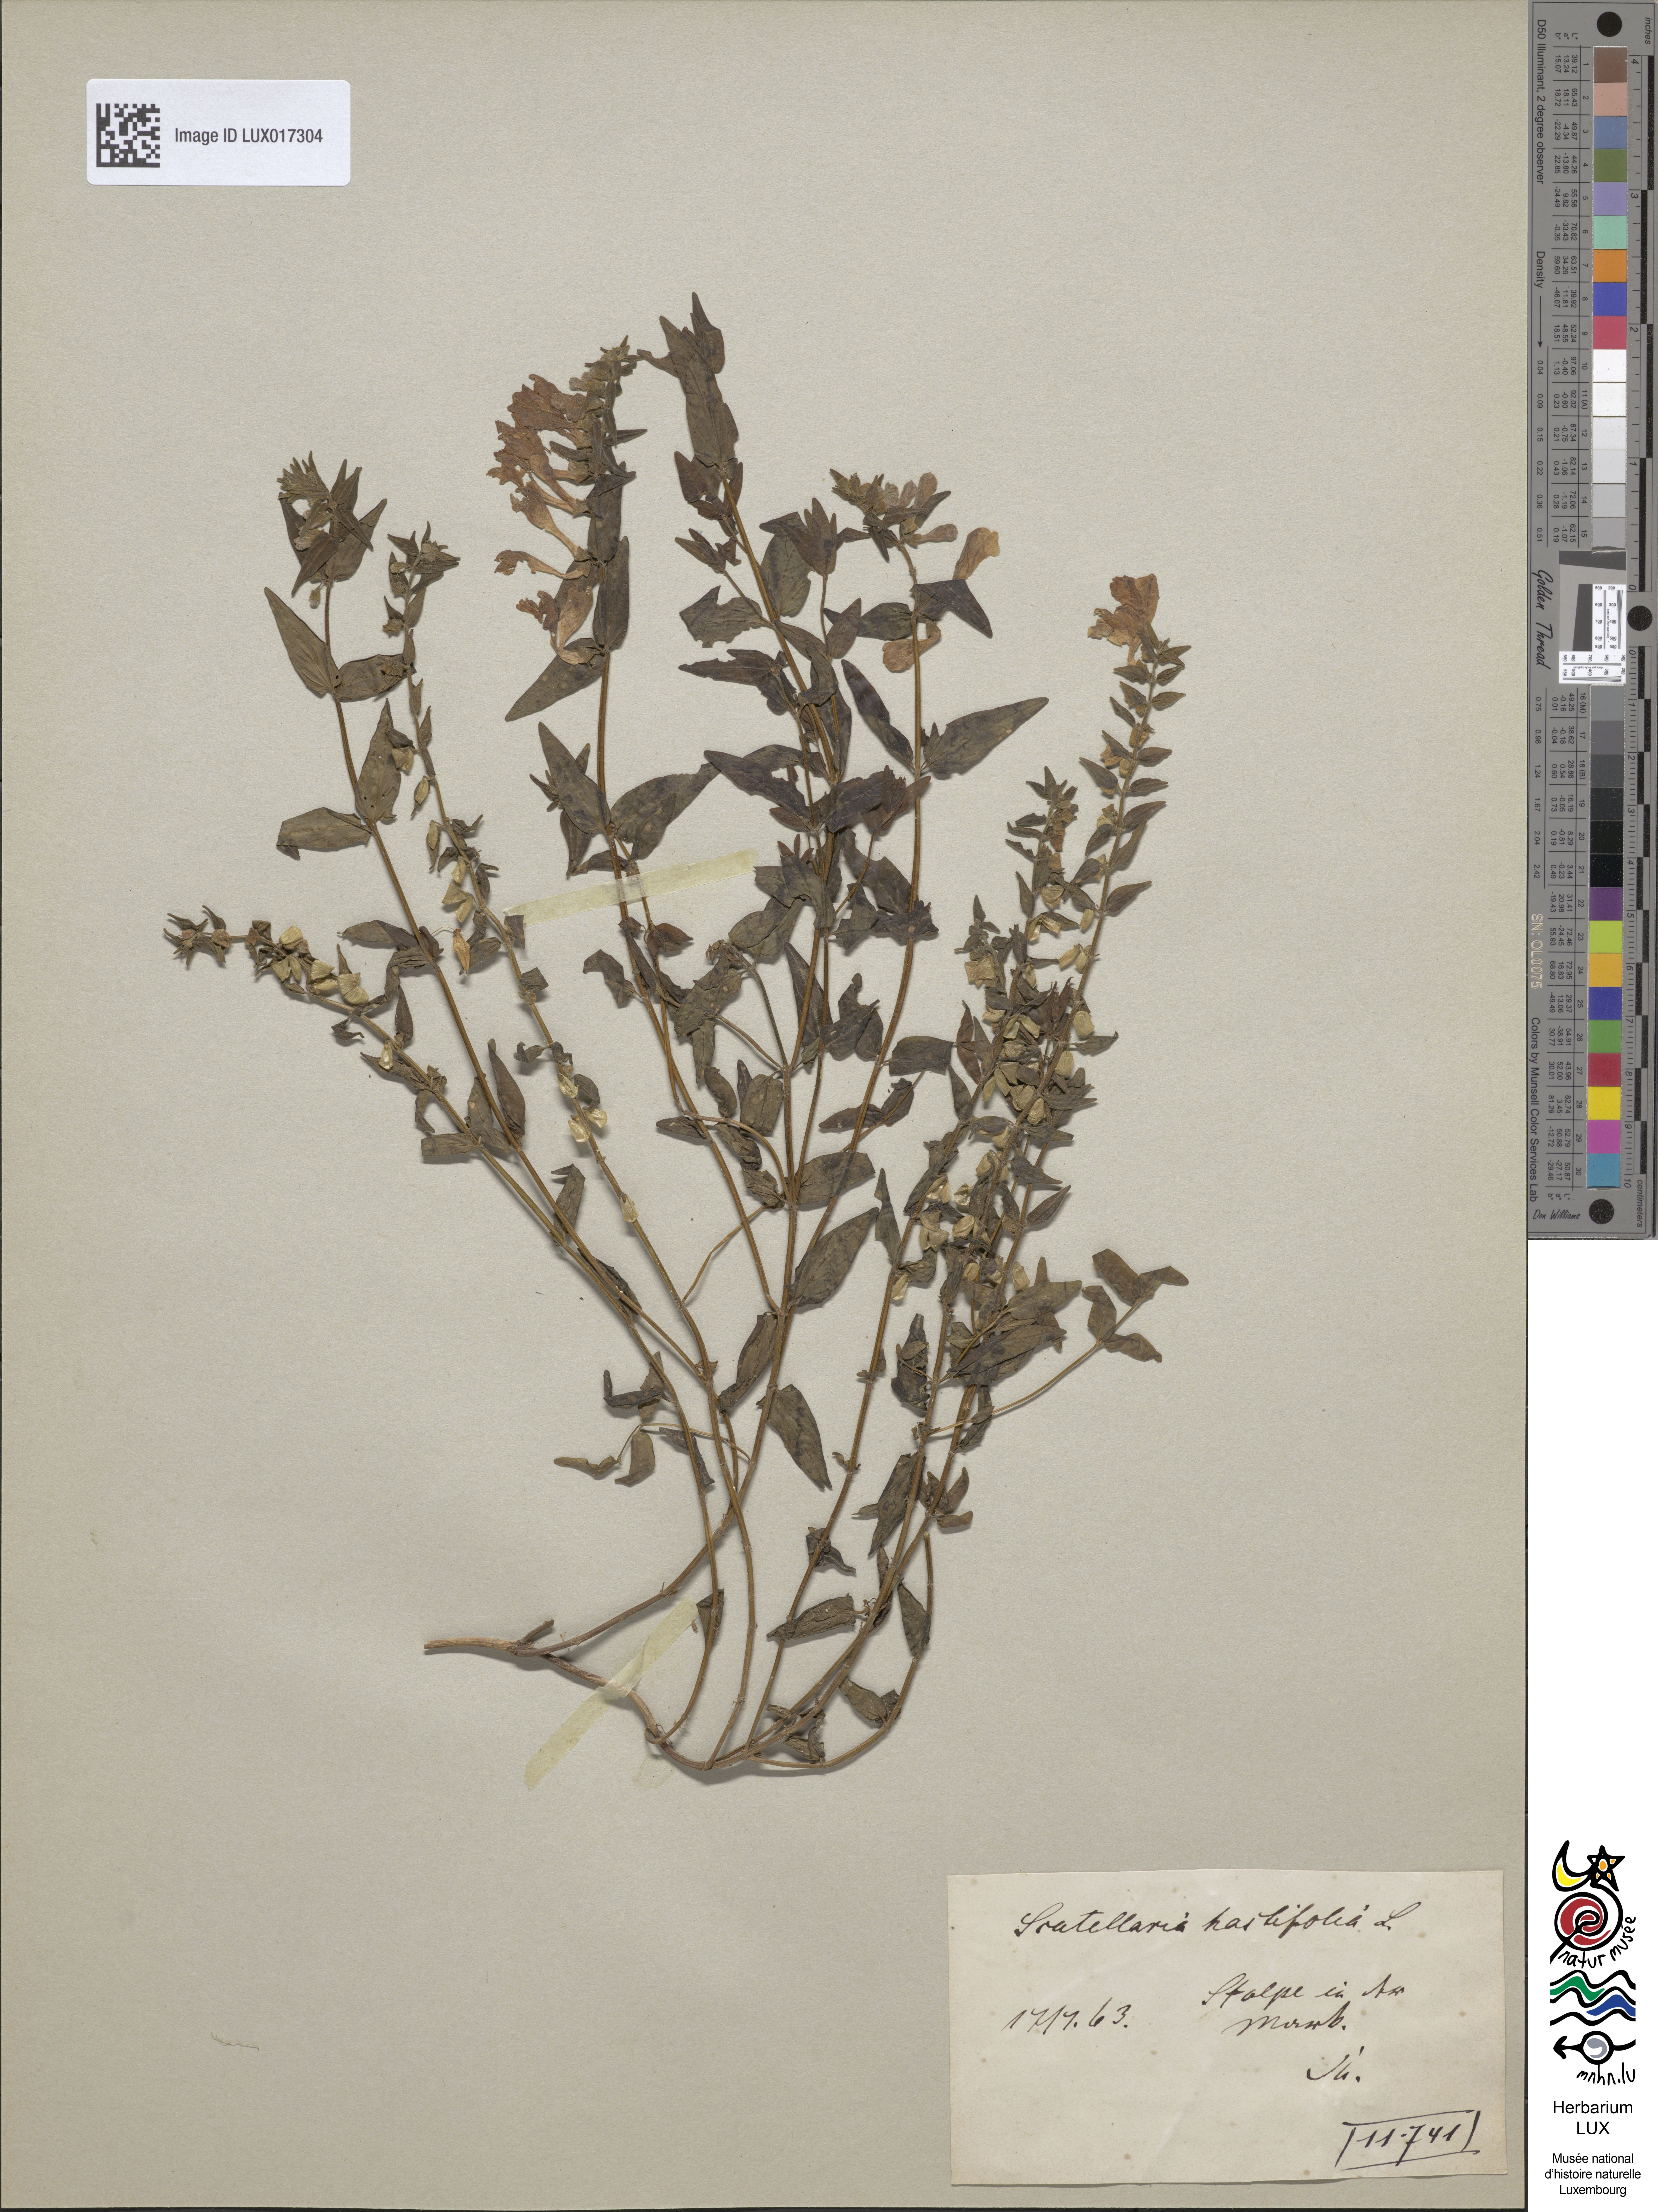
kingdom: Plantae
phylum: Tracheophyta
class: Magnoliopsida
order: Lamiales
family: Lamiaceae
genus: Scutellaria
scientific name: Scutellaria hastifolia
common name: Norfolk skullcap
